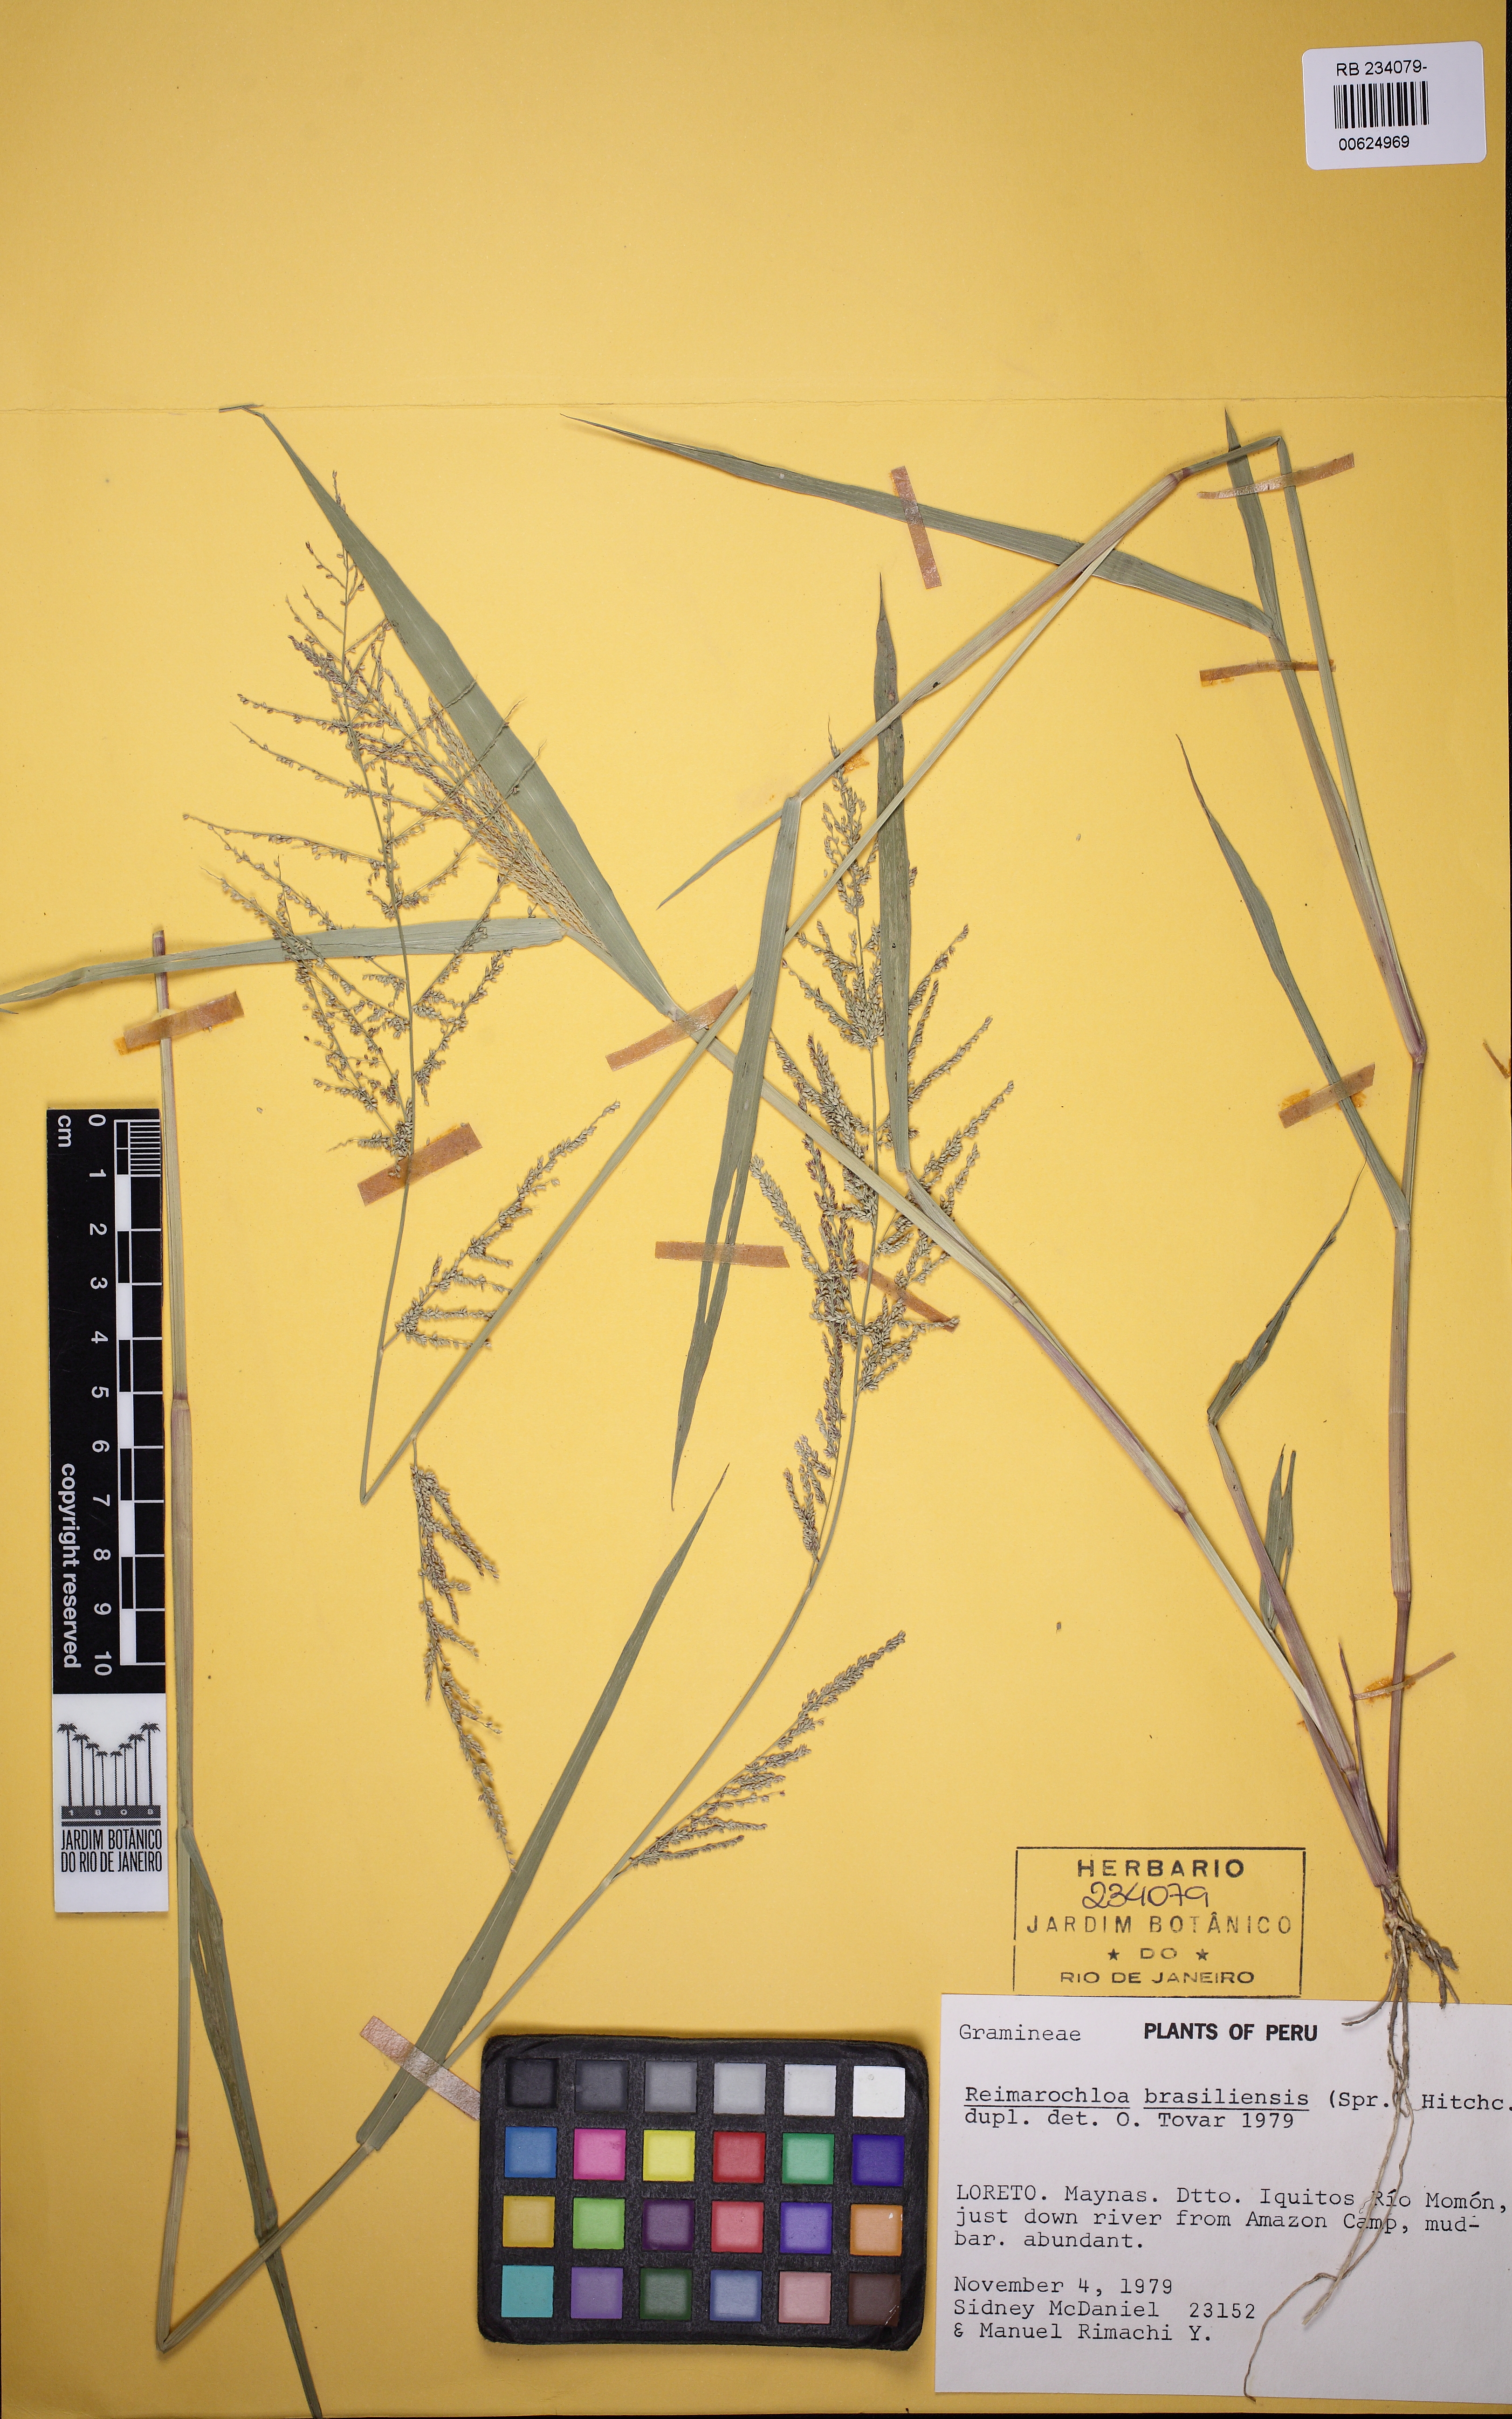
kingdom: Plantae
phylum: Tracheophyta
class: Liliopsida
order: Poales
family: Poaceae
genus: Paspalum
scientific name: Paspalum stagnophilum
